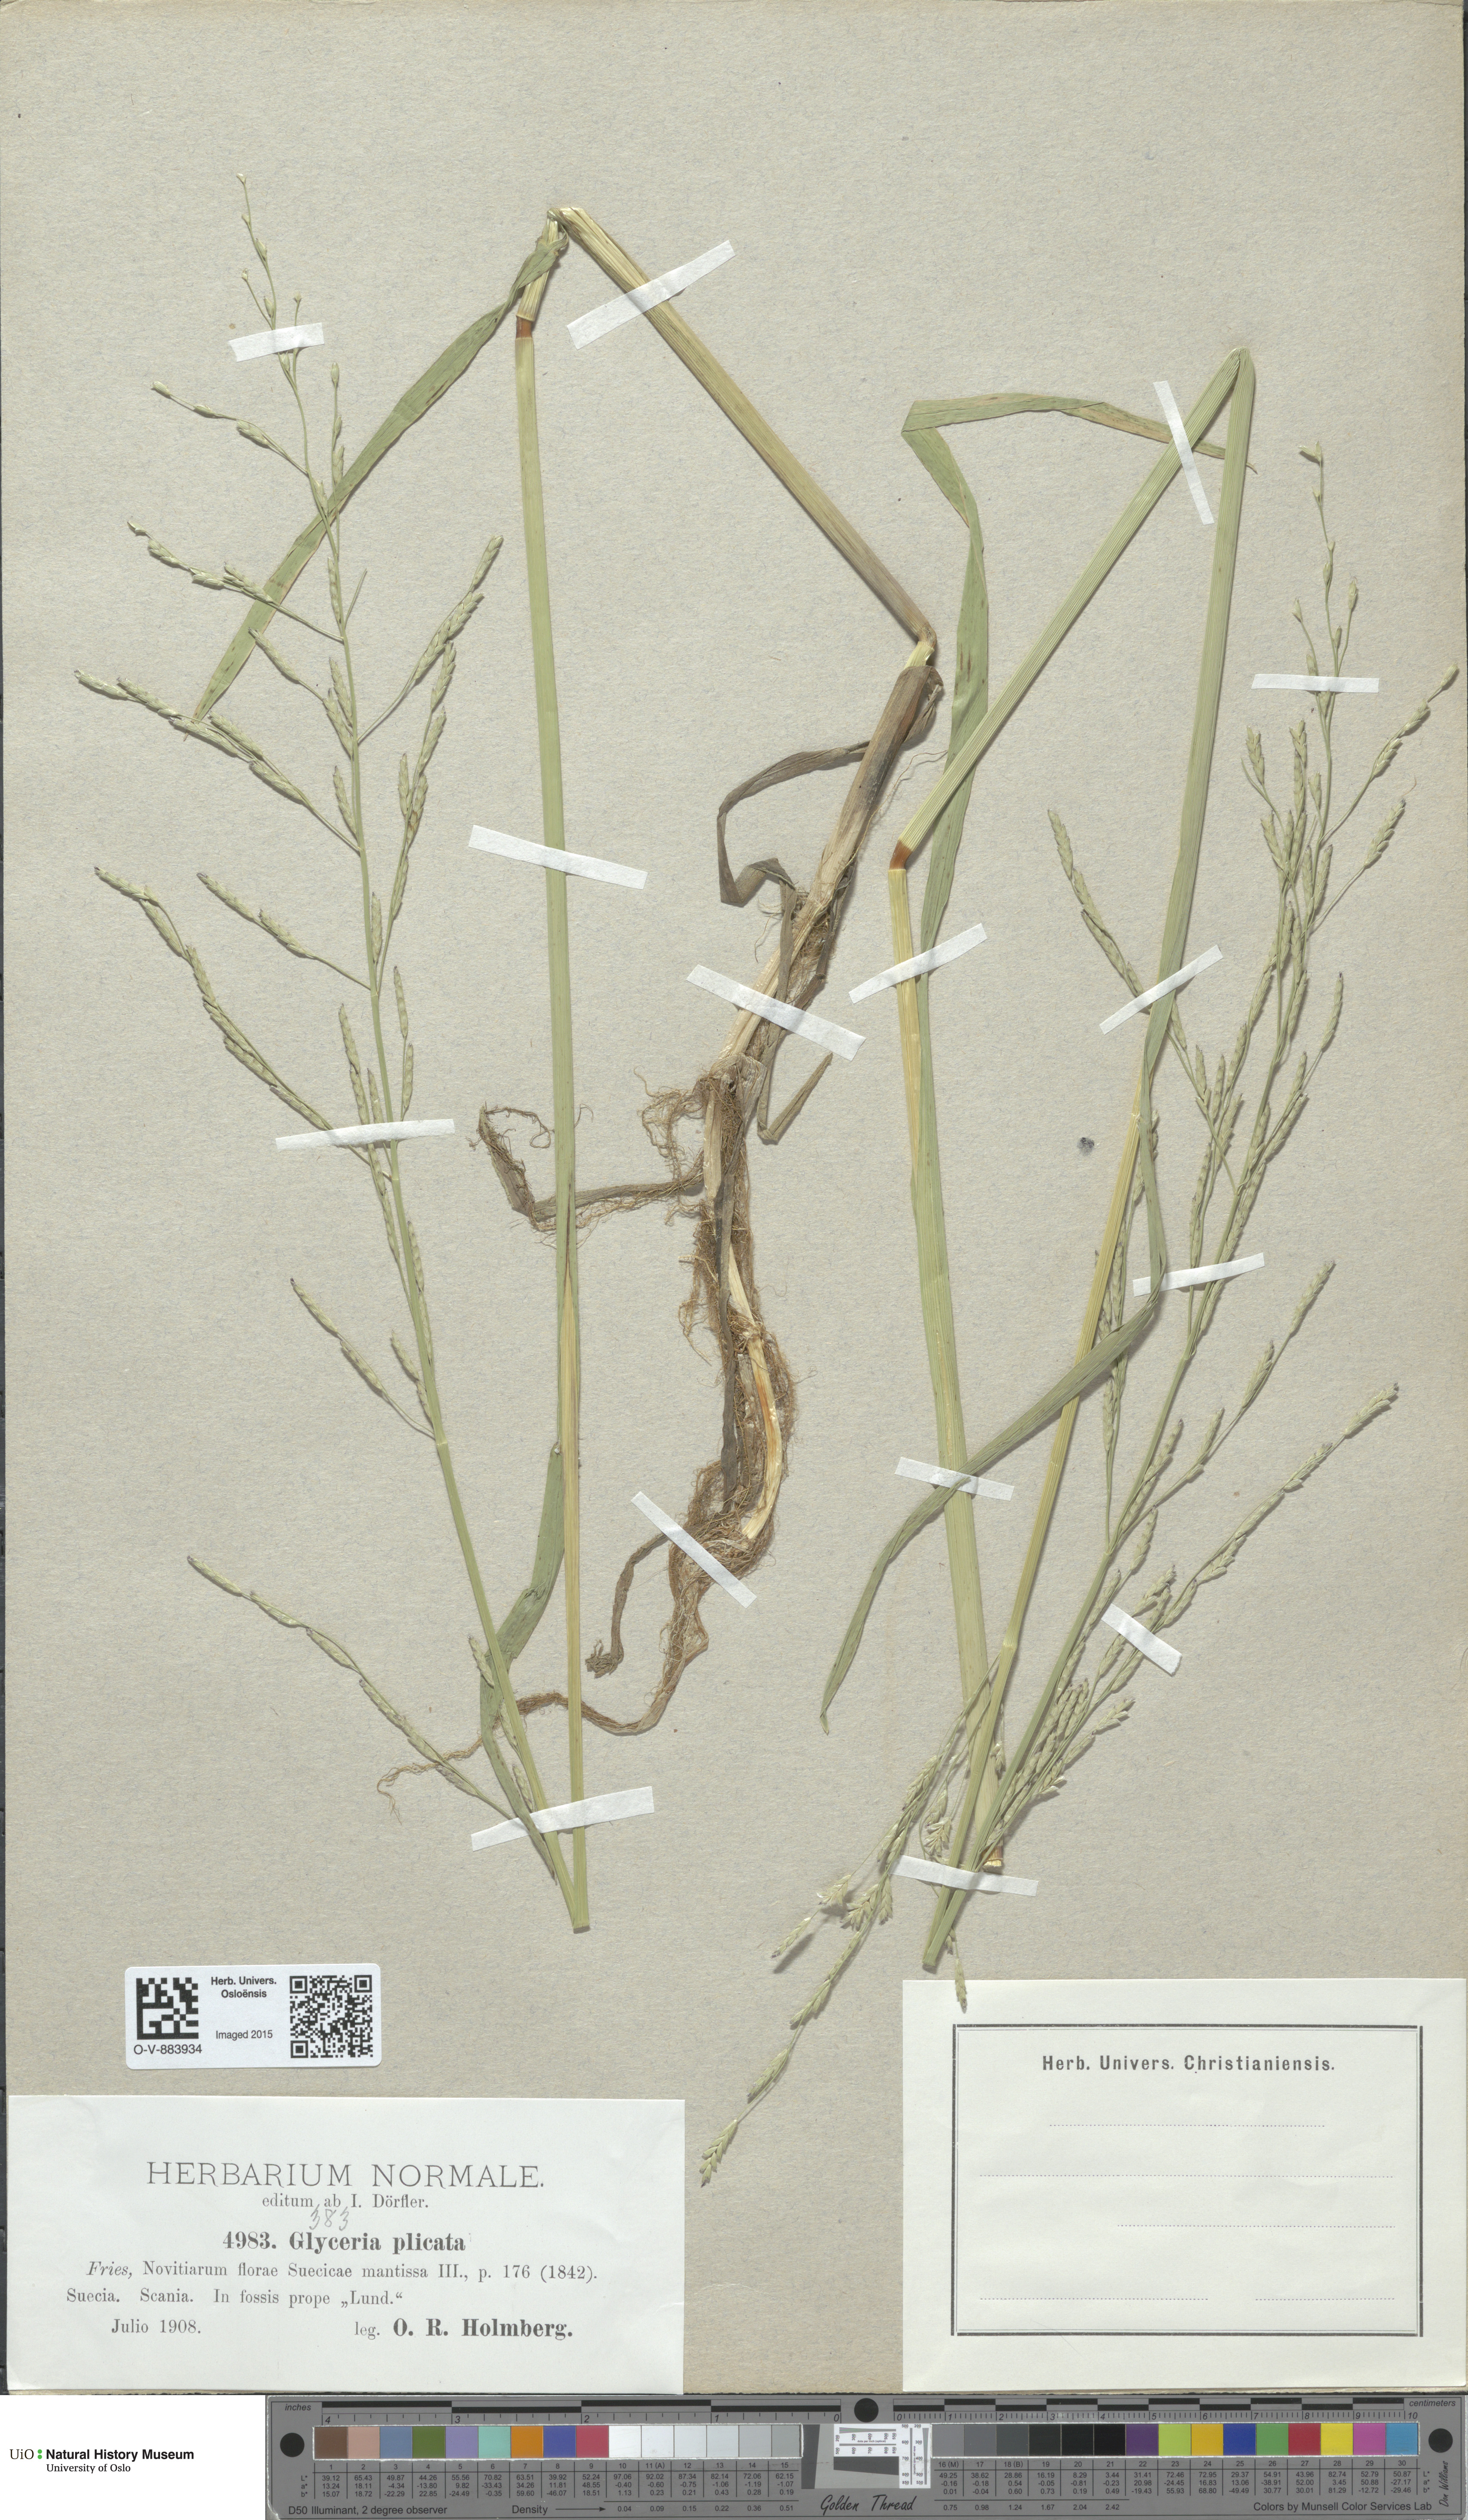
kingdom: Plantae
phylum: Tracheophyta
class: Liliopsida
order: Poales
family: Poaceae
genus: Glyceria
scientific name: Glyceria notata
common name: Plicate sweet-grass
